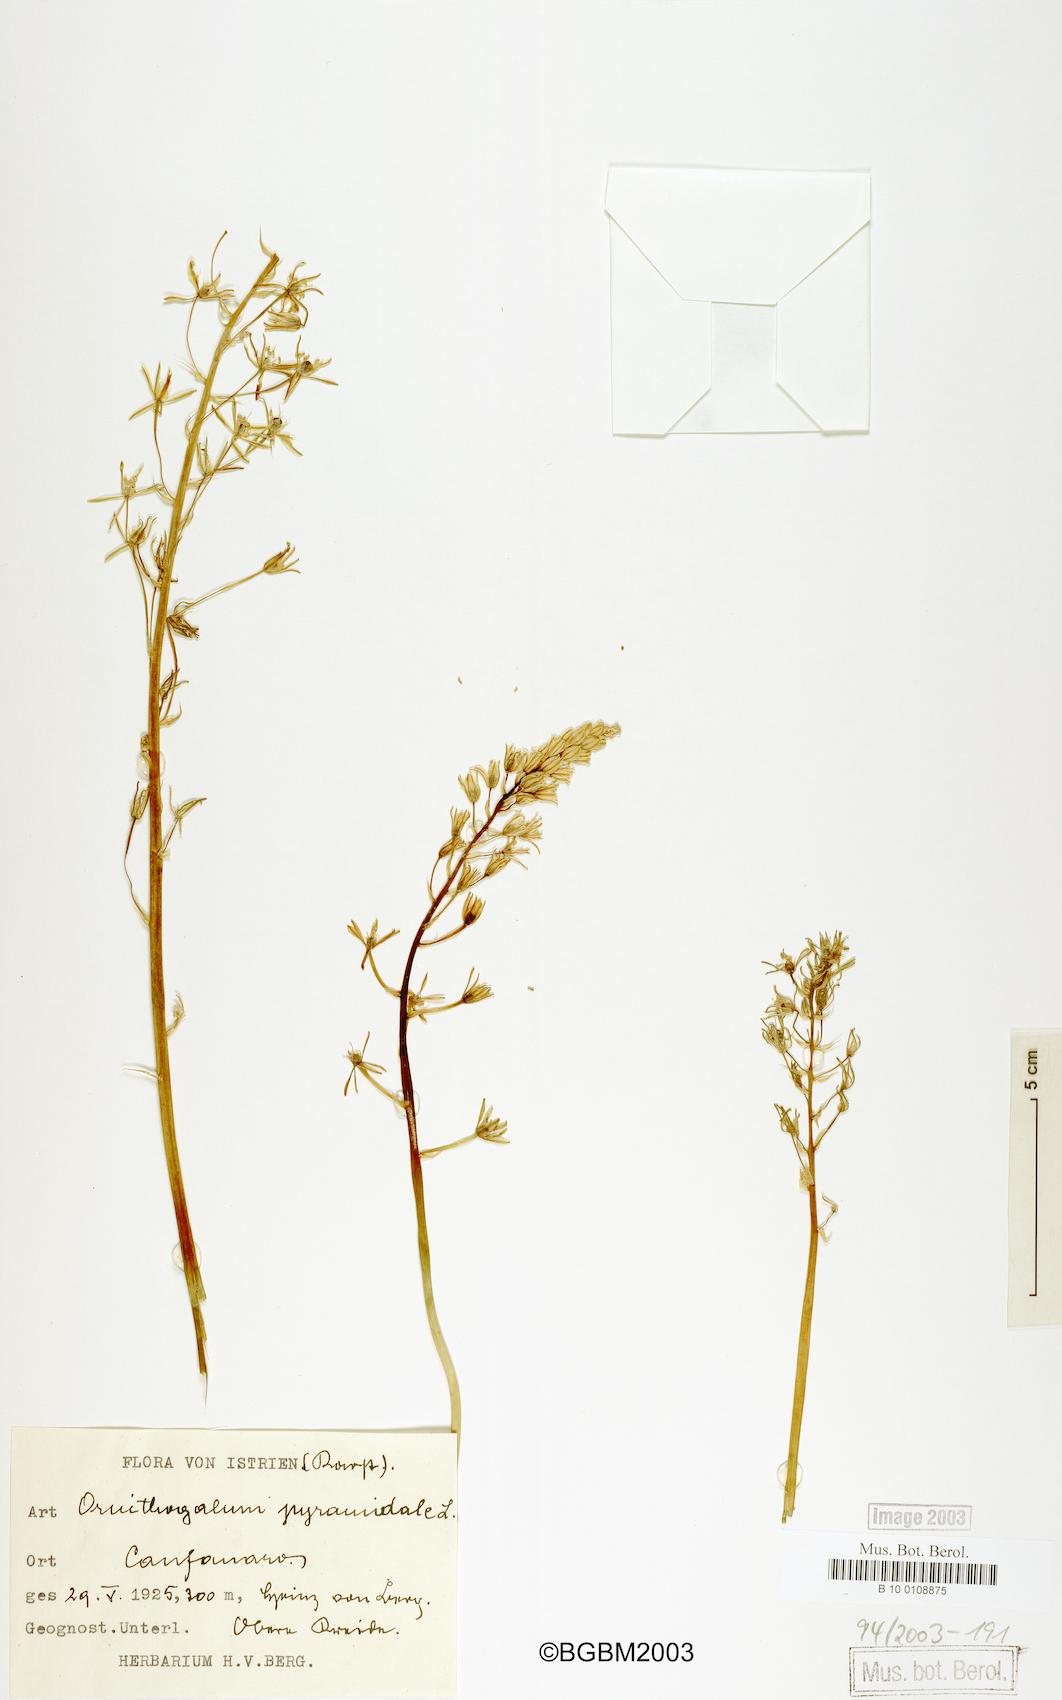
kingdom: Plantae
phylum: Tracheophyta
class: Liliopsida
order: Asparagales
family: Asparagaceae
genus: Ornithogalum
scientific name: Ornithogalum pyramidale
